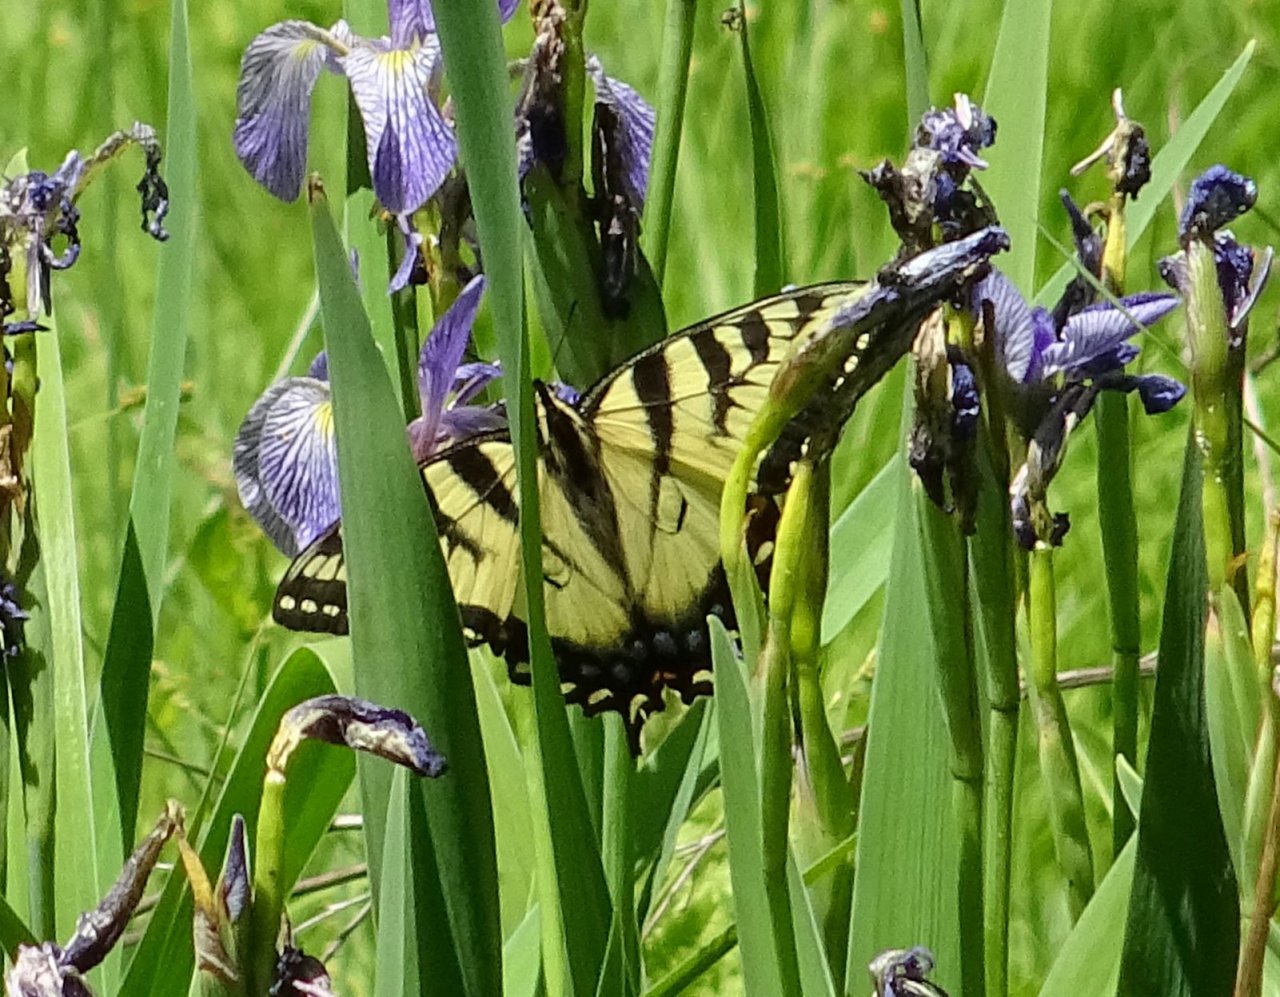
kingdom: Animalia
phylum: Arthropoda
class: Insecta
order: Lepidoptera
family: Papilionidae
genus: Pterourus
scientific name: Pterourus glaucus
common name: Eastern Tiger Swallowtail
